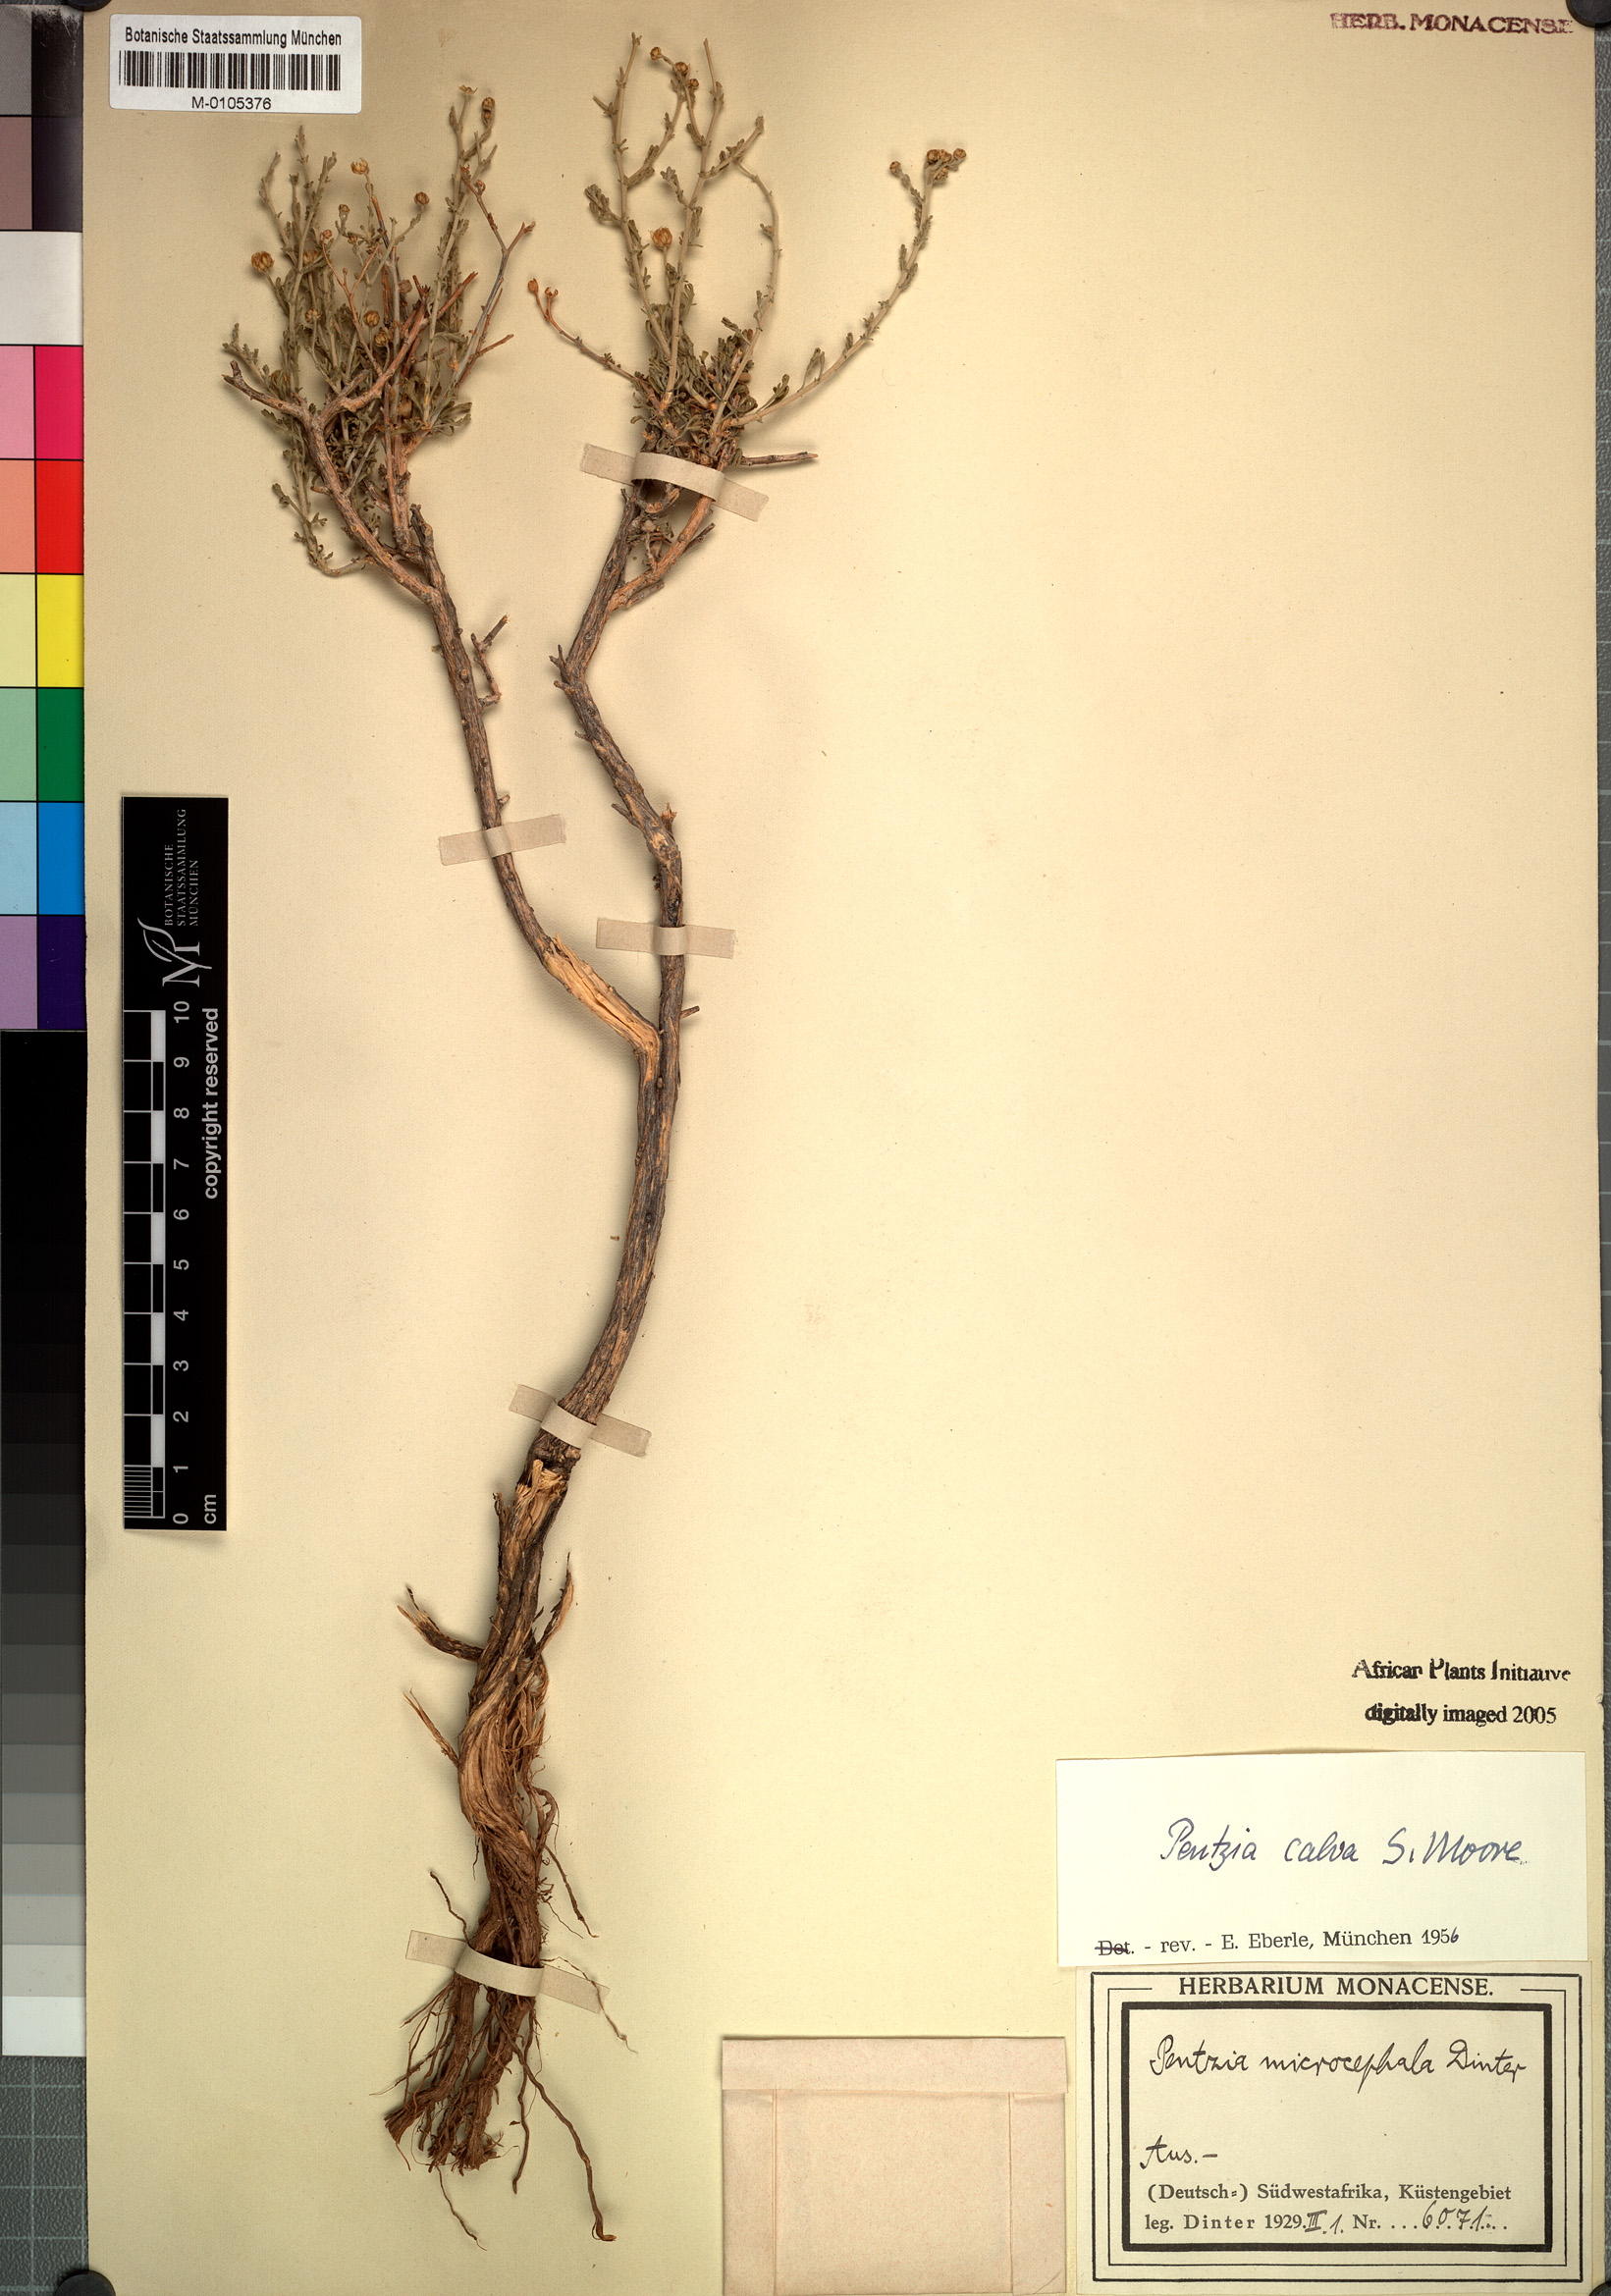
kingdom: Plantae
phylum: Tracheophyta
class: Magnoliopsida
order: Asterales
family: Asteraceae
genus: Pentzia
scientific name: Pentzia calva
